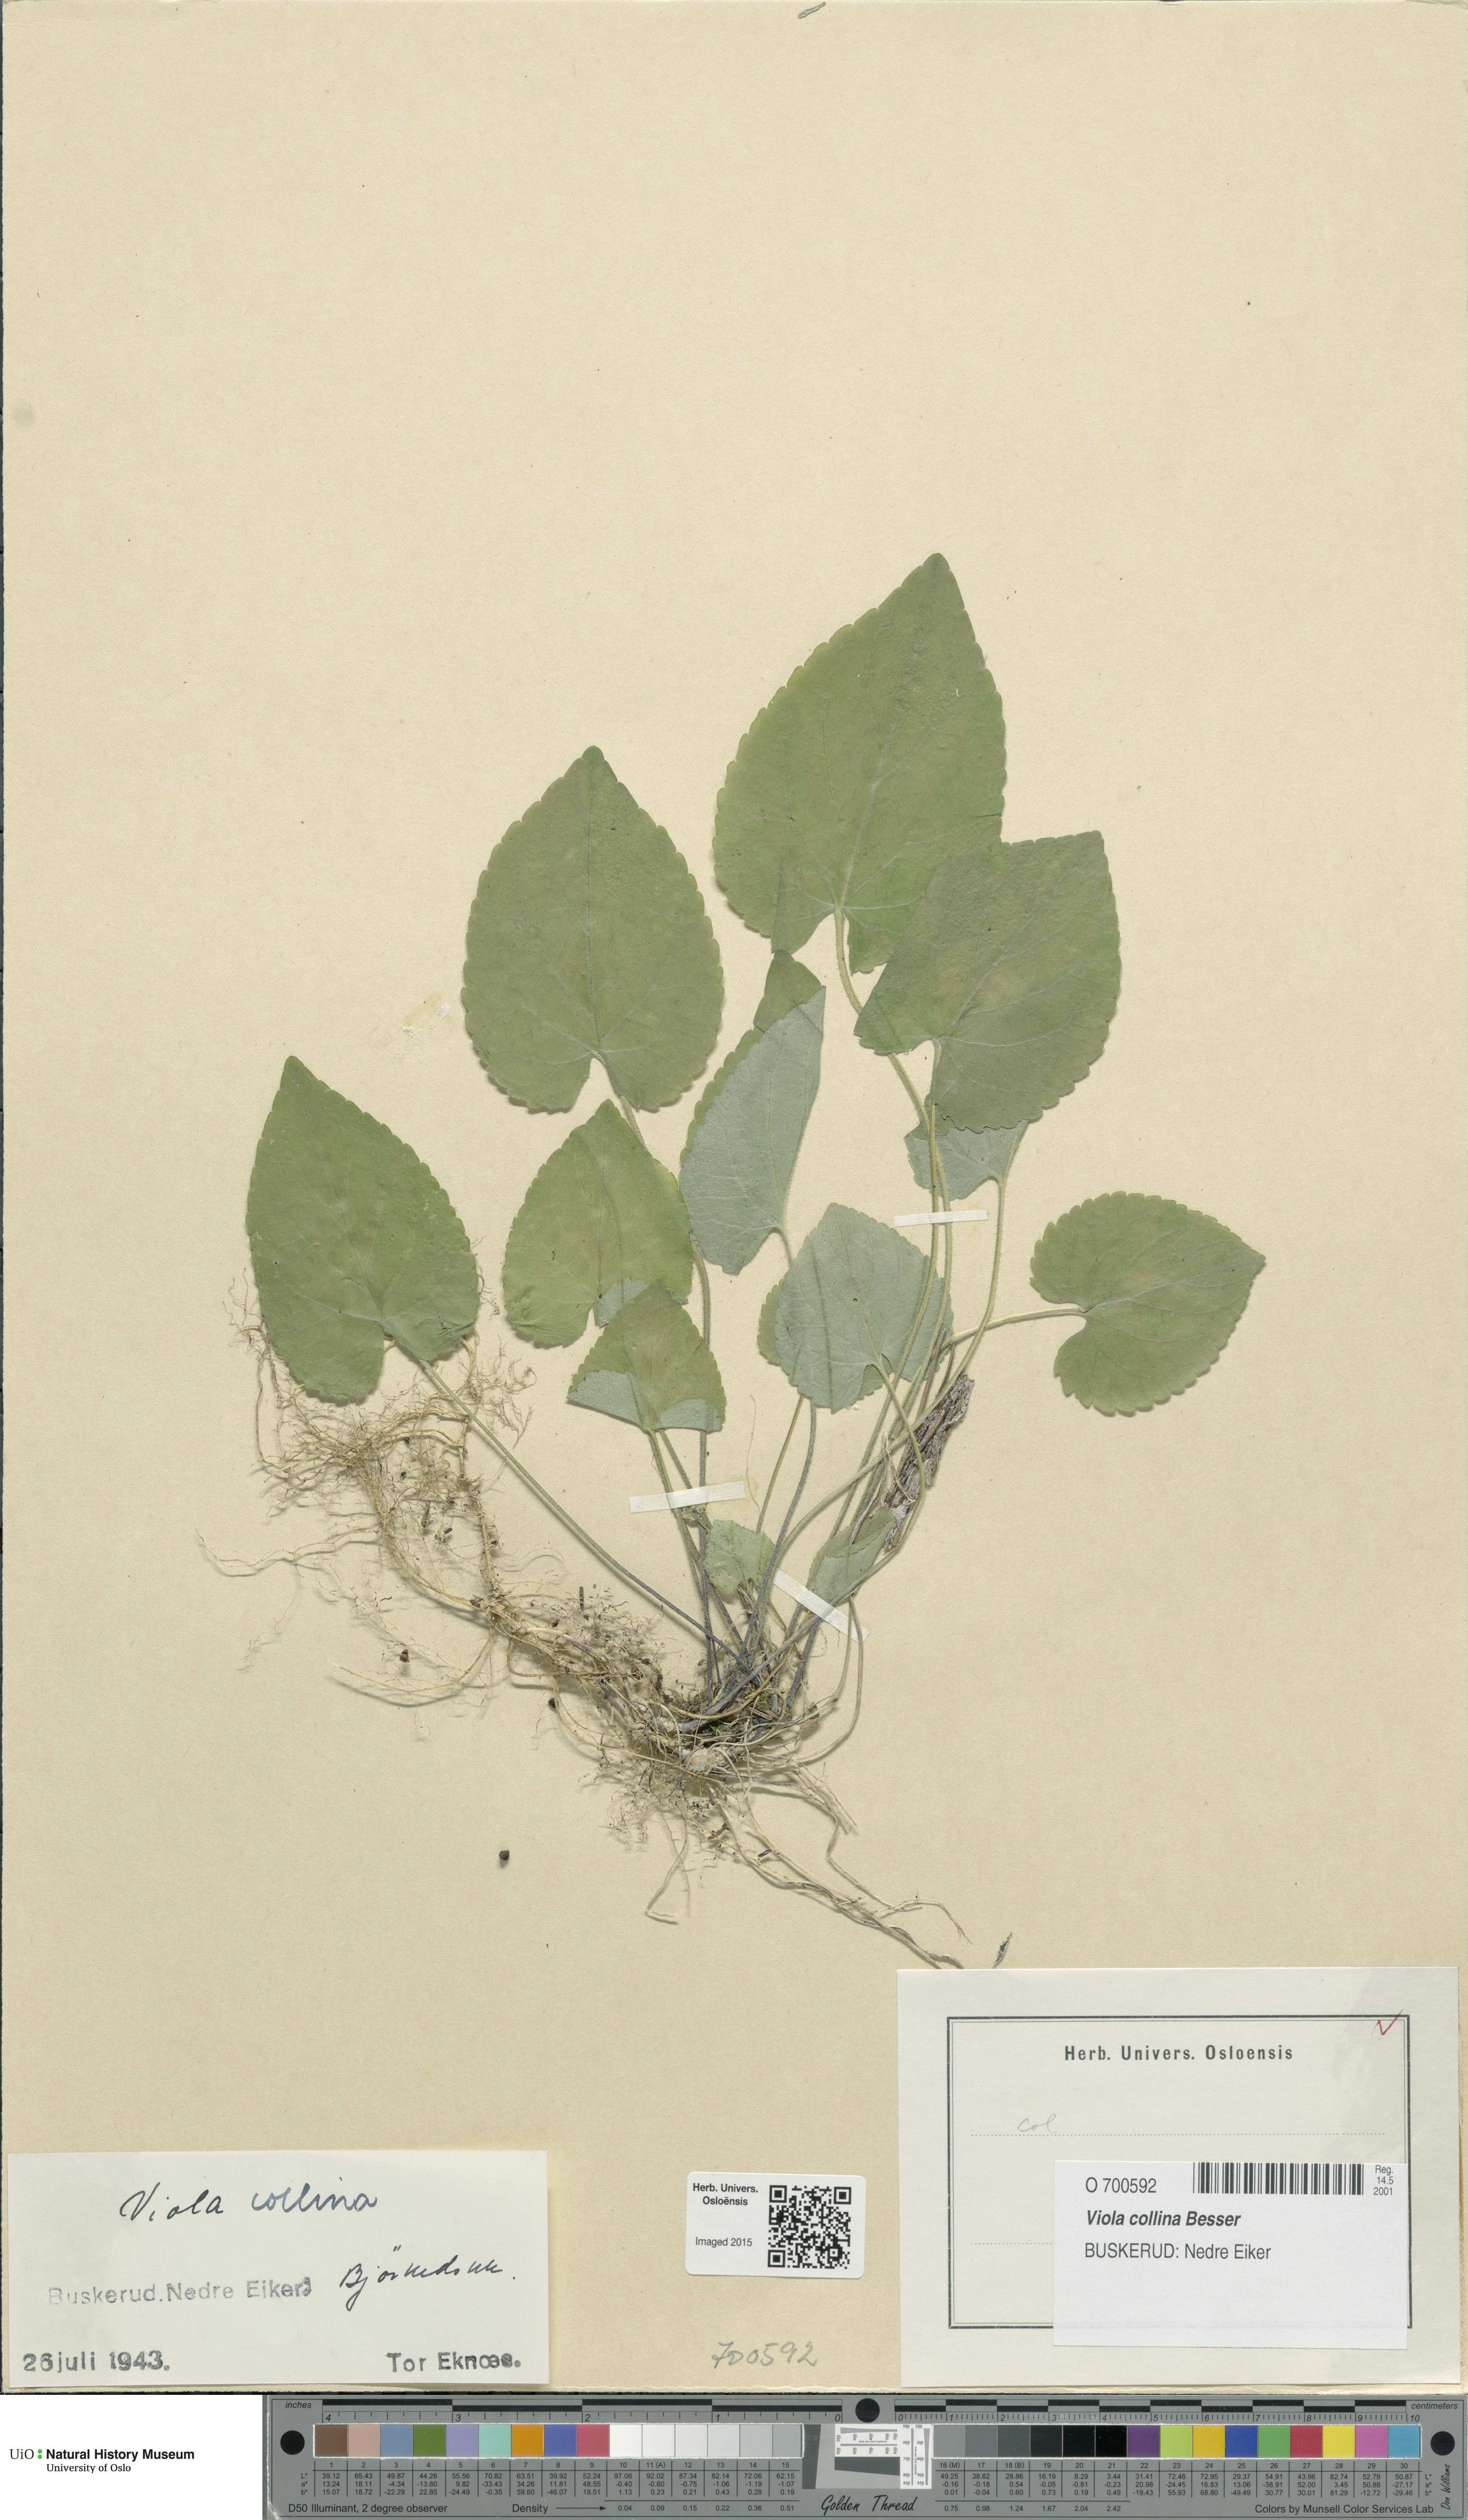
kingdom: Plantae
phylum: Tracheophyta
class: Magnoliopsida
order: Malpighiales
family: Violaceae
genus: Viola
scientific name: Viola collina
